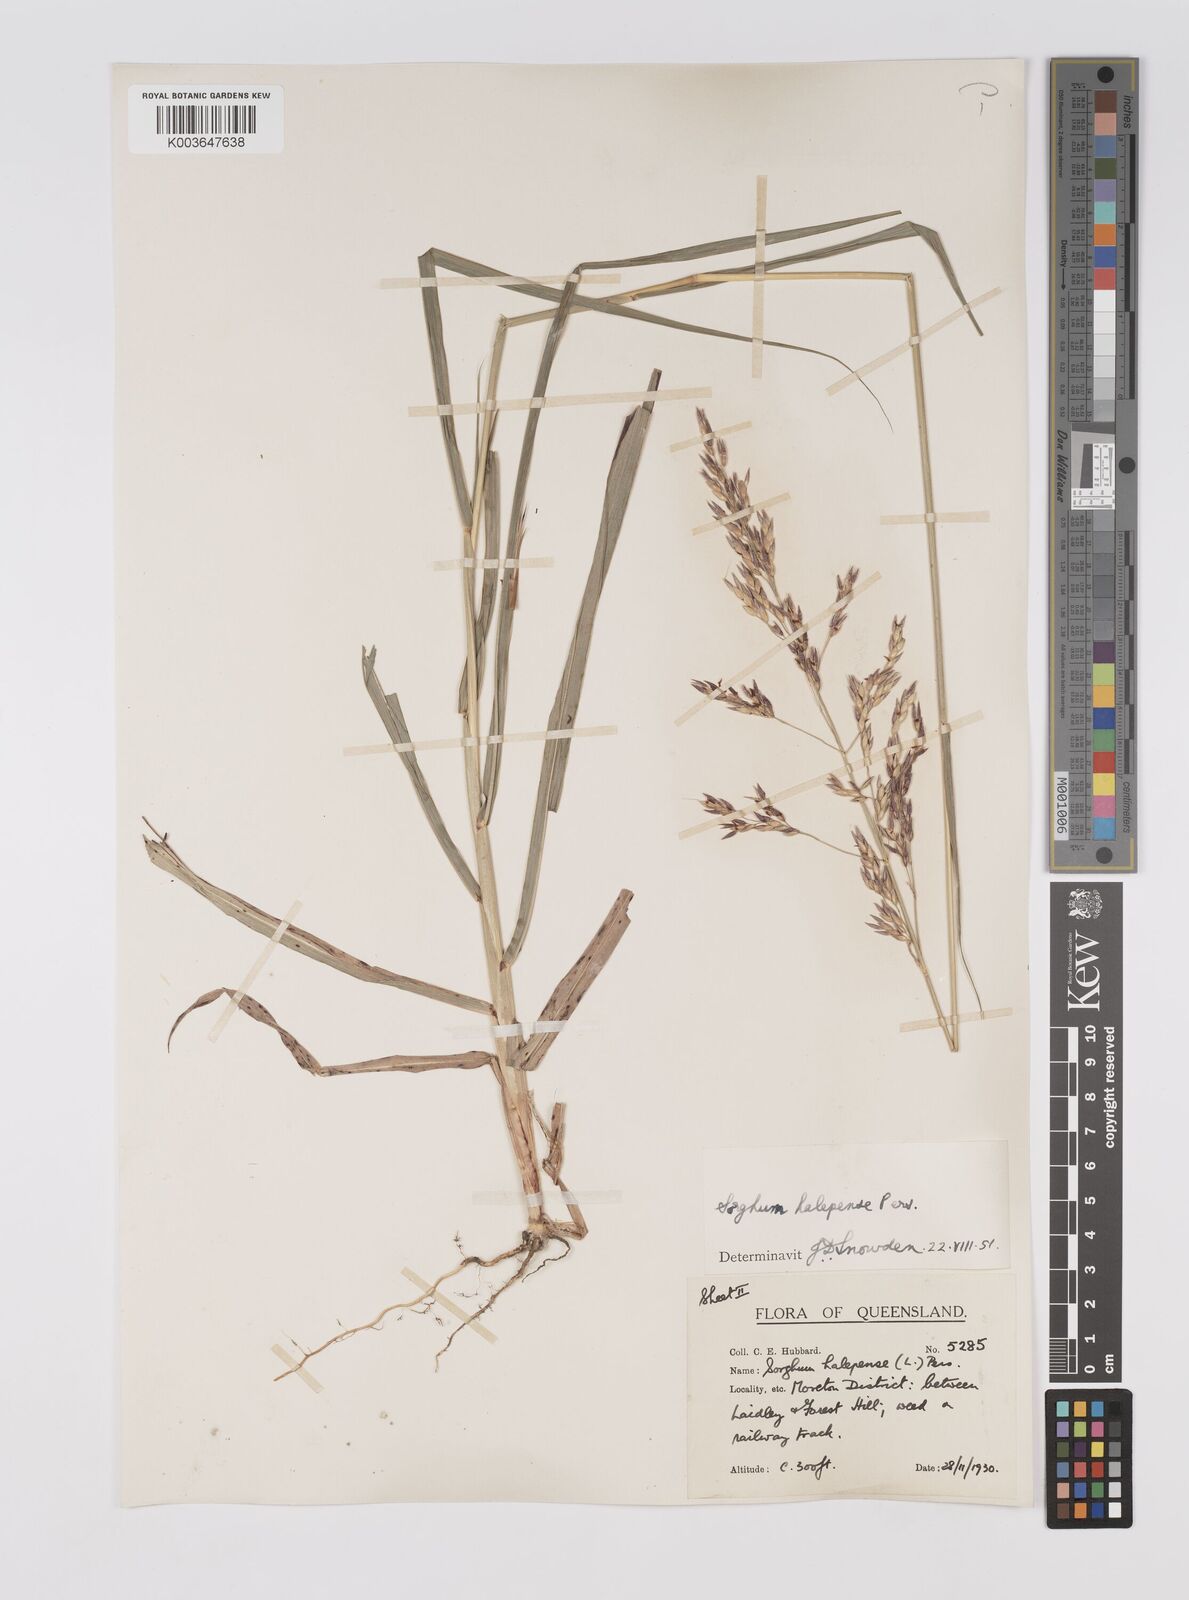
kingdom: Plantae
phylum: Tracheophyta
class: Liliopsida
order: Poales
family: Poaceae
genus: Sorghum
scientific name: Sorghum halepense
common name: Johnson-grass
